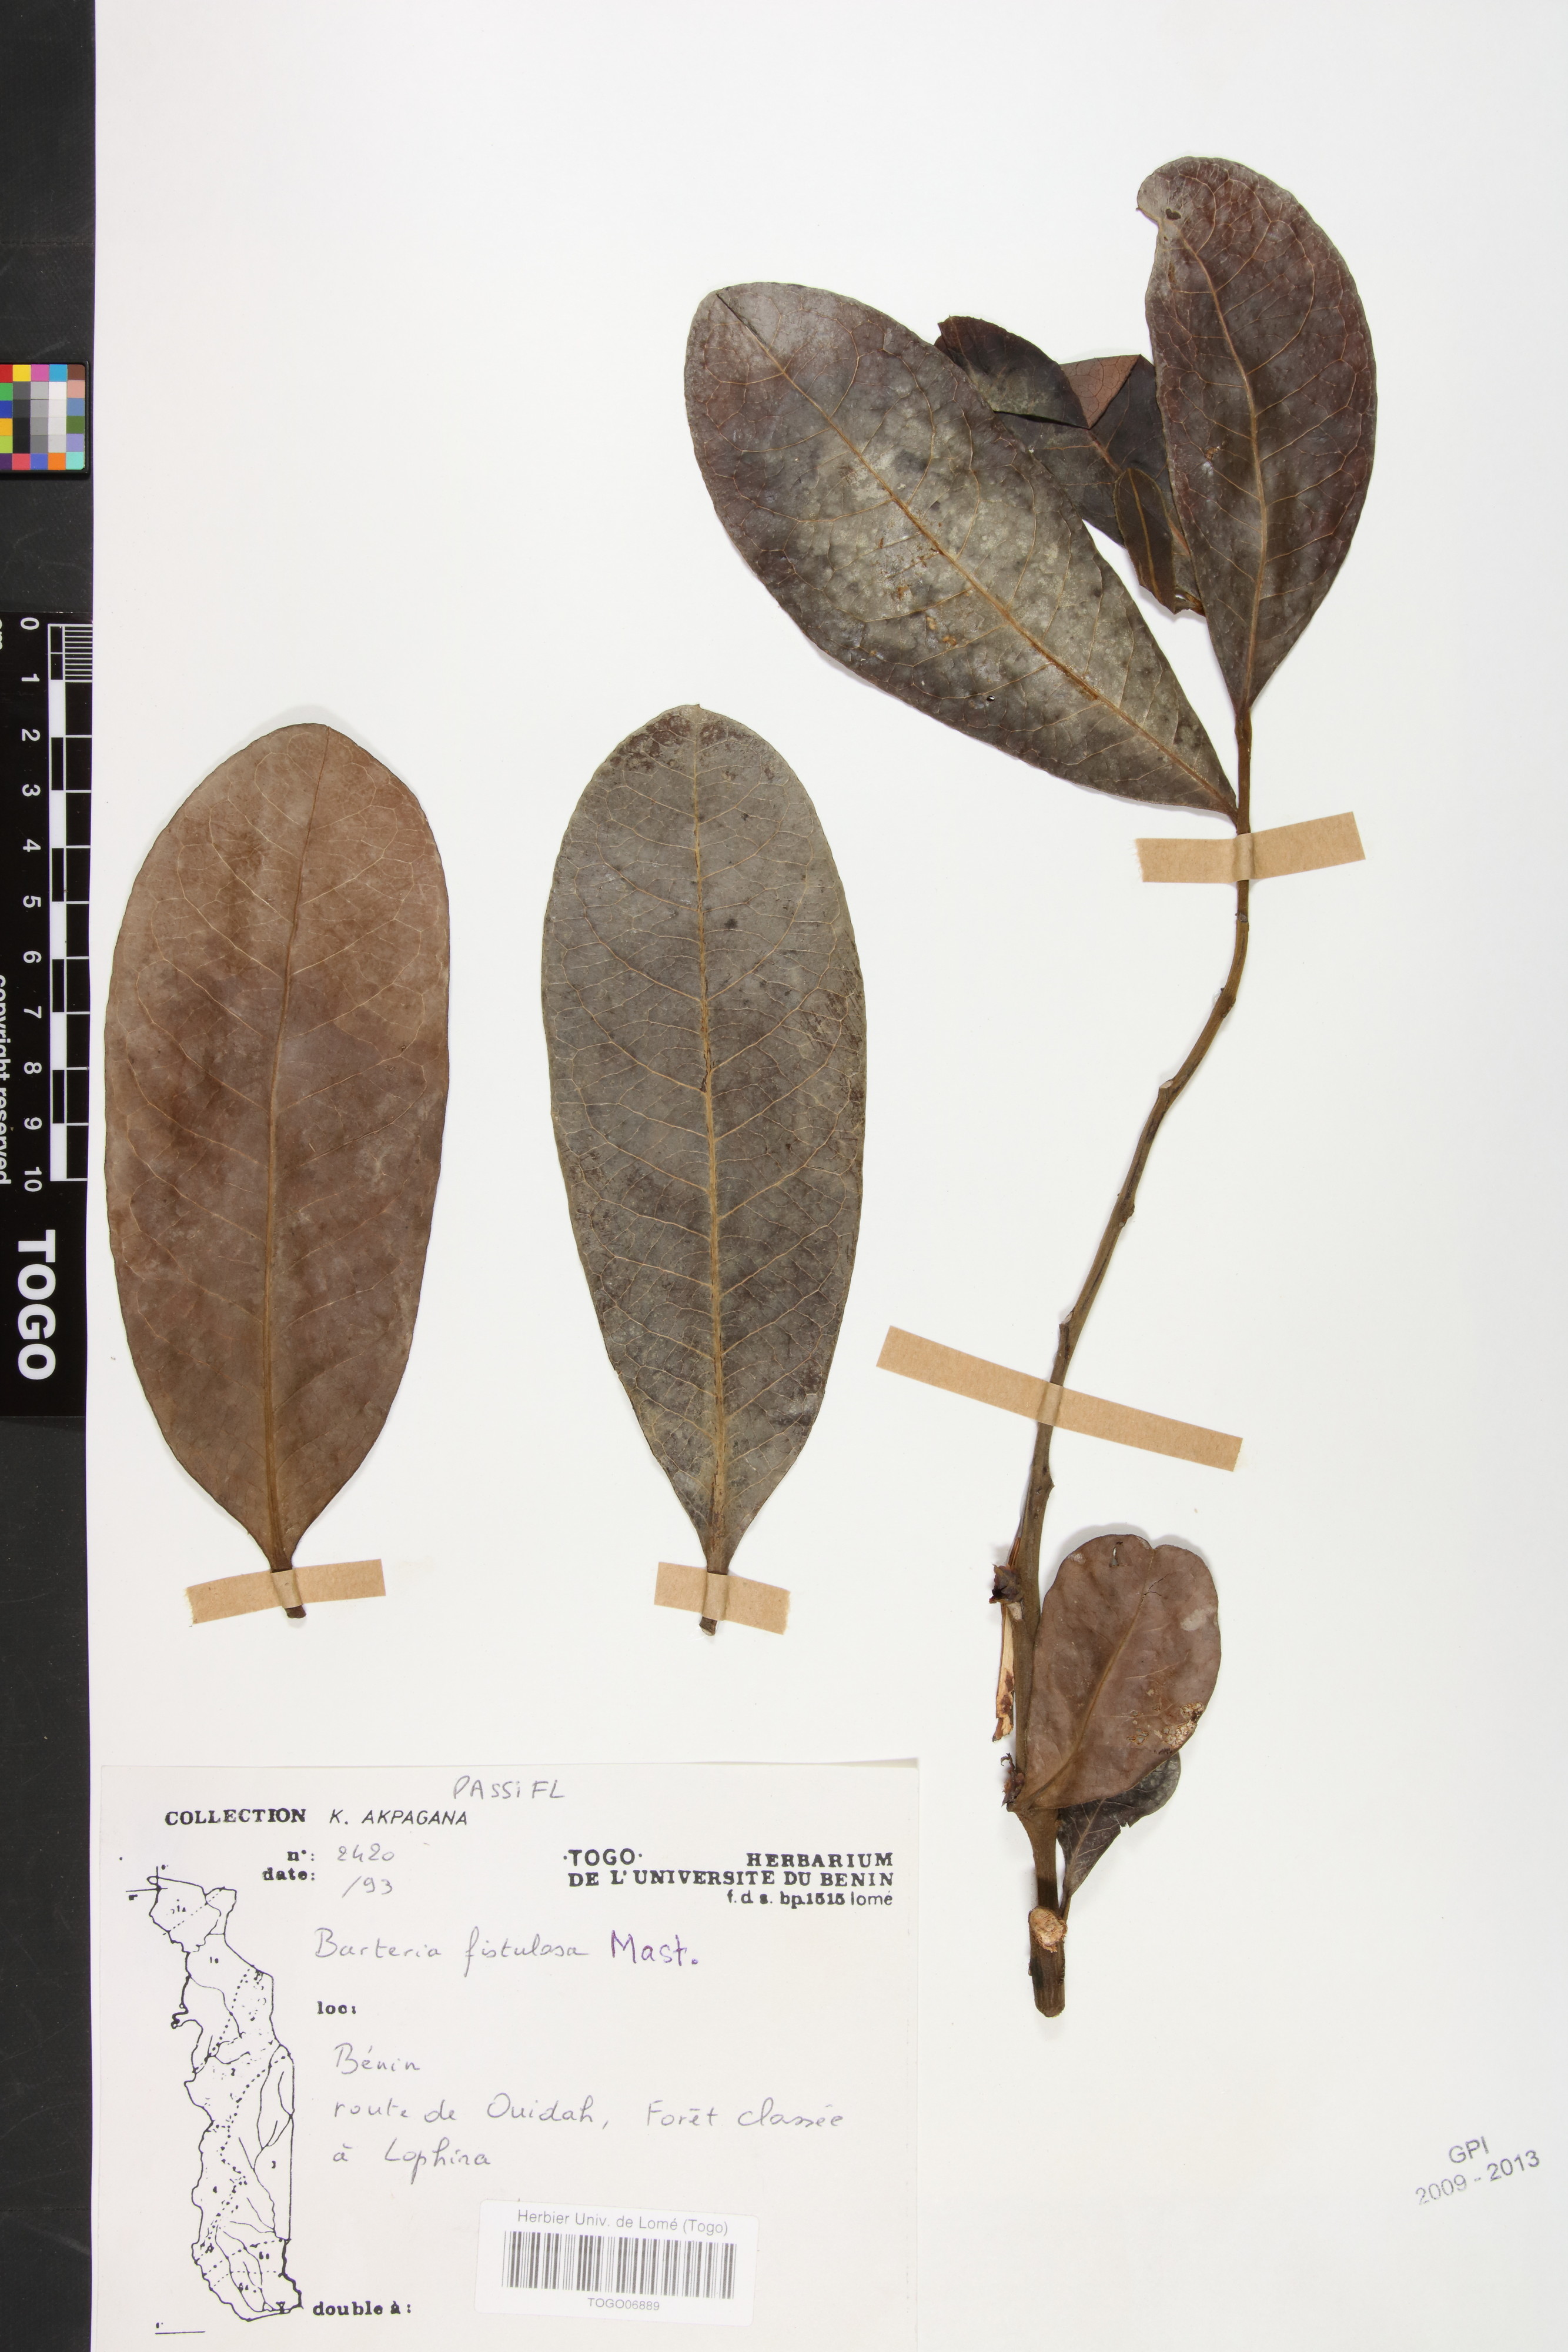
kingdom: Plantae
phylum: Tracheophyta
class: Magnoliopsida
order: Malpighiales
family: Passifloraceae
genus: Barteria
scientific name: Barteria fistulosa
